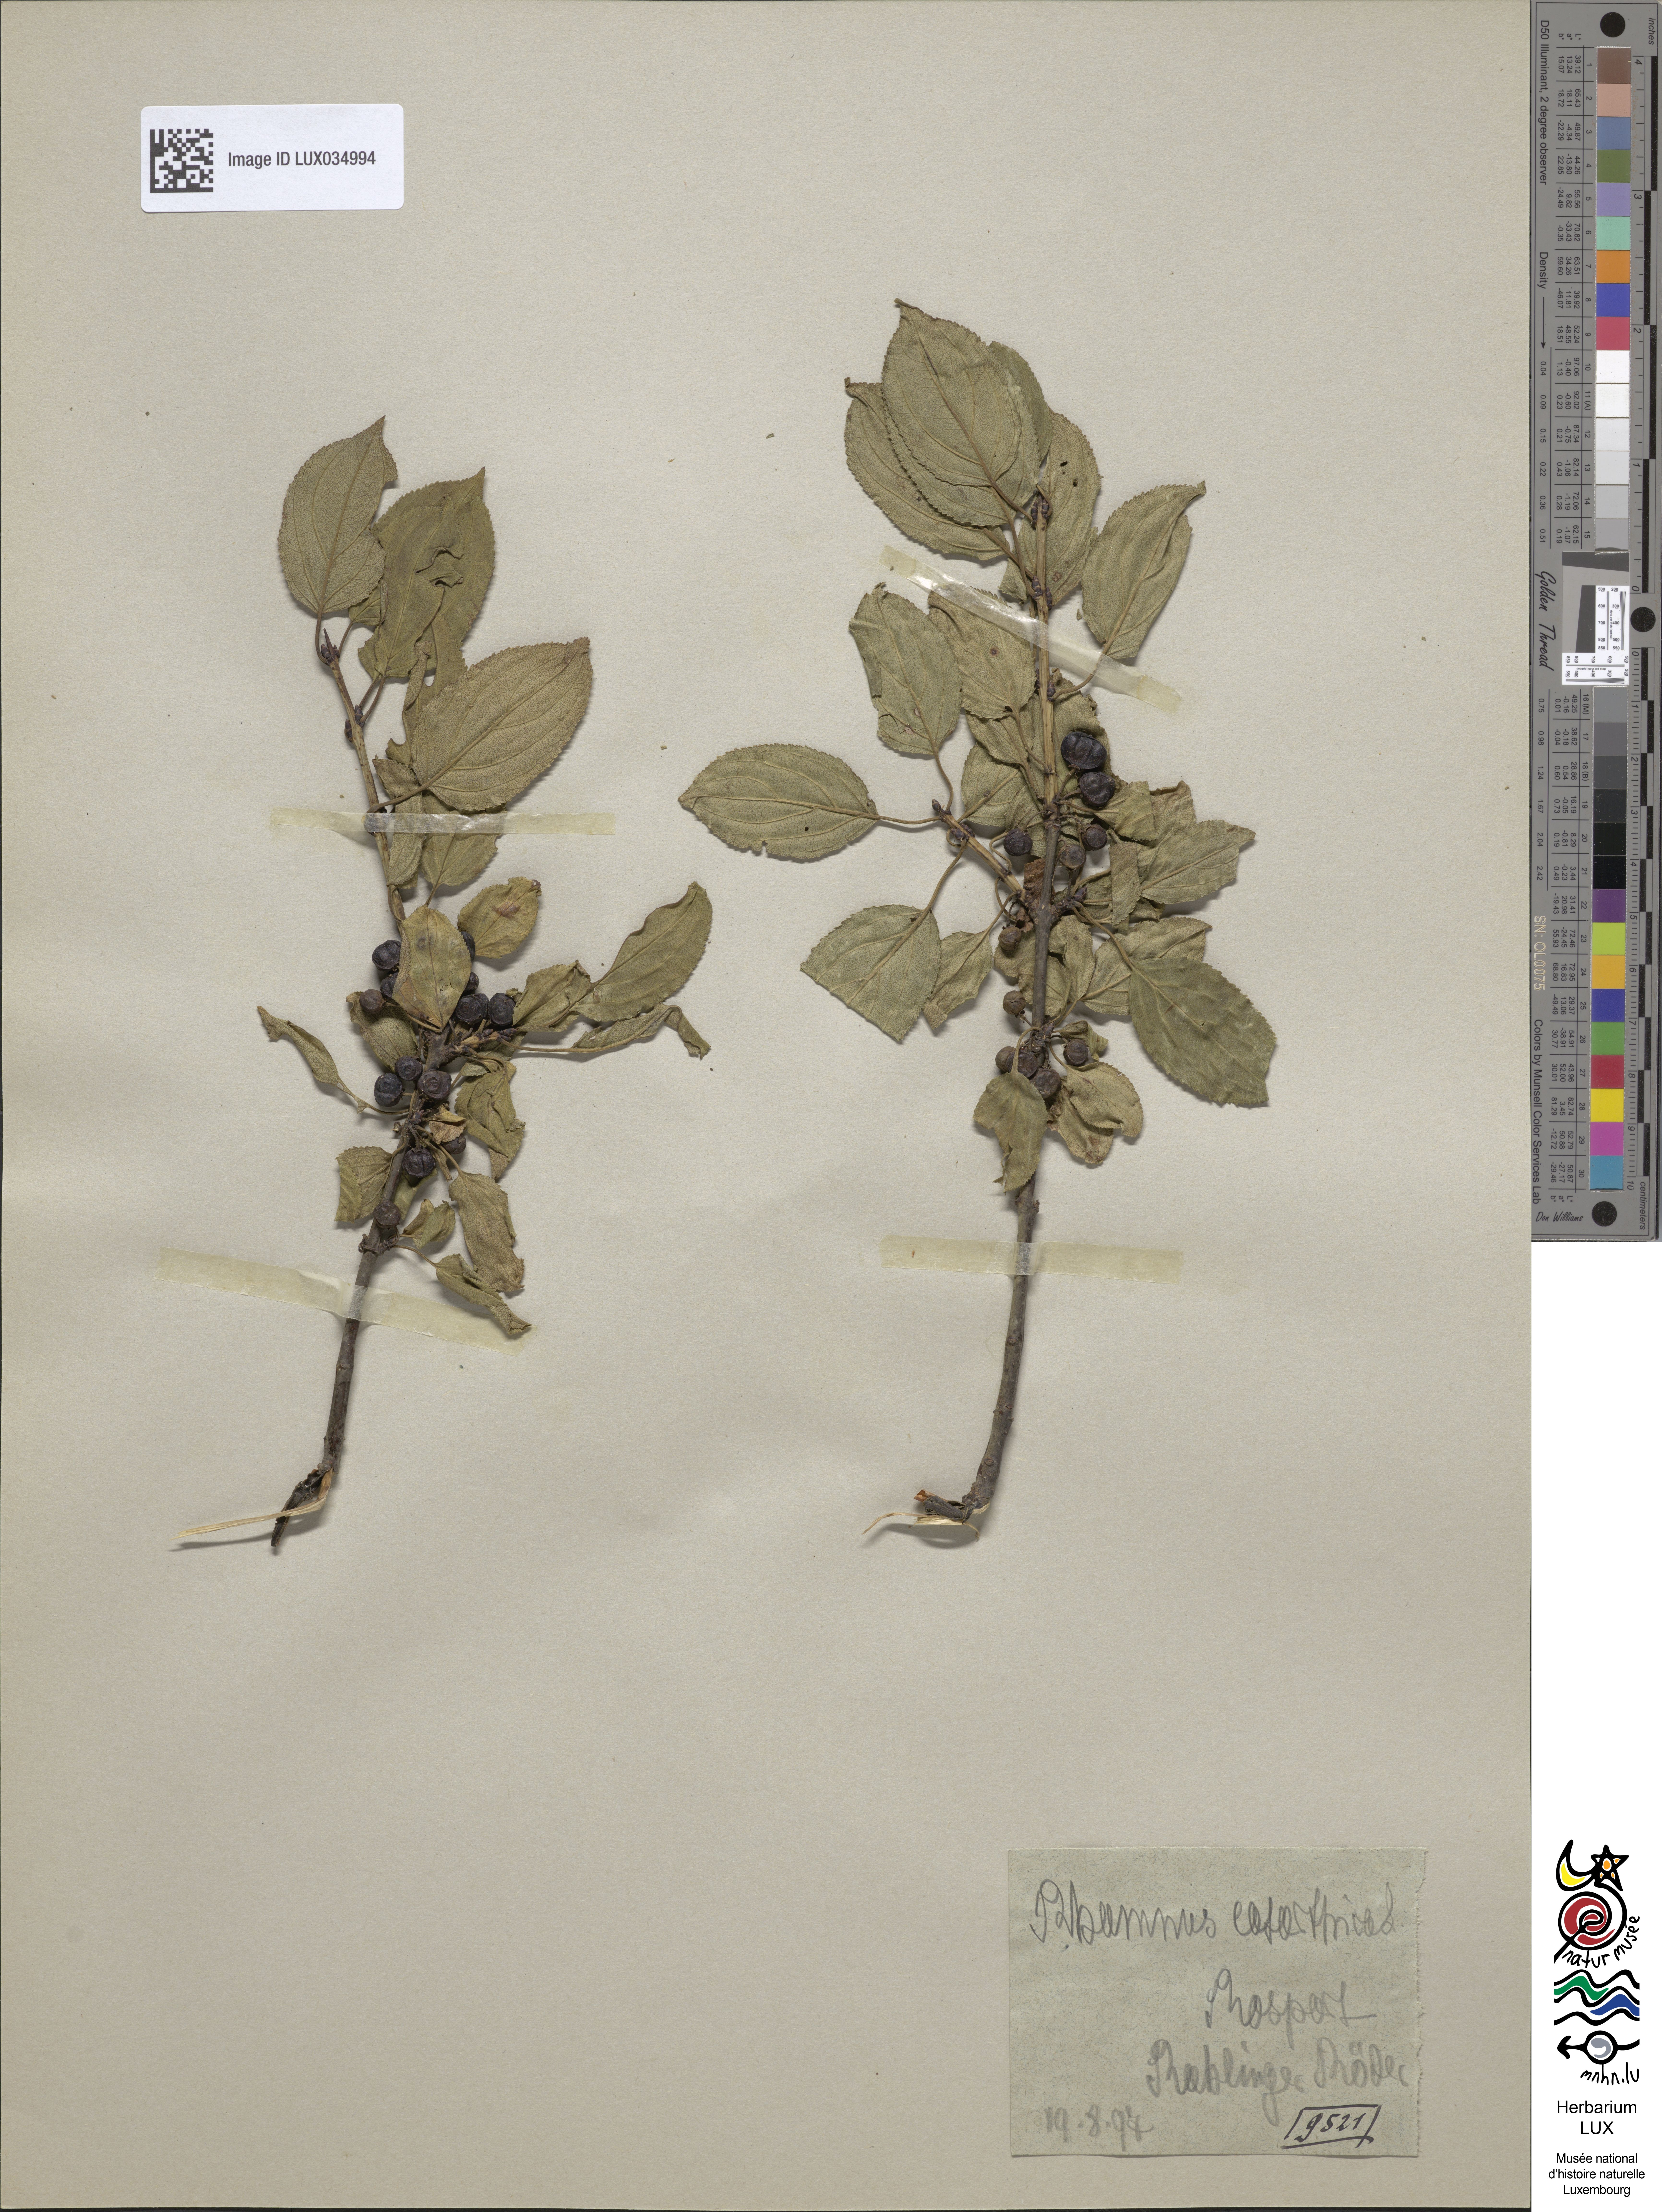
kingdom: Plantae
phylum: Tracheophyta
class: Magnoliopsida
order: Rosales
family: Rhamnaceae
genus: Rhamnus
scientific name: Rhamnus cathartica
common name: Common buckthorn
